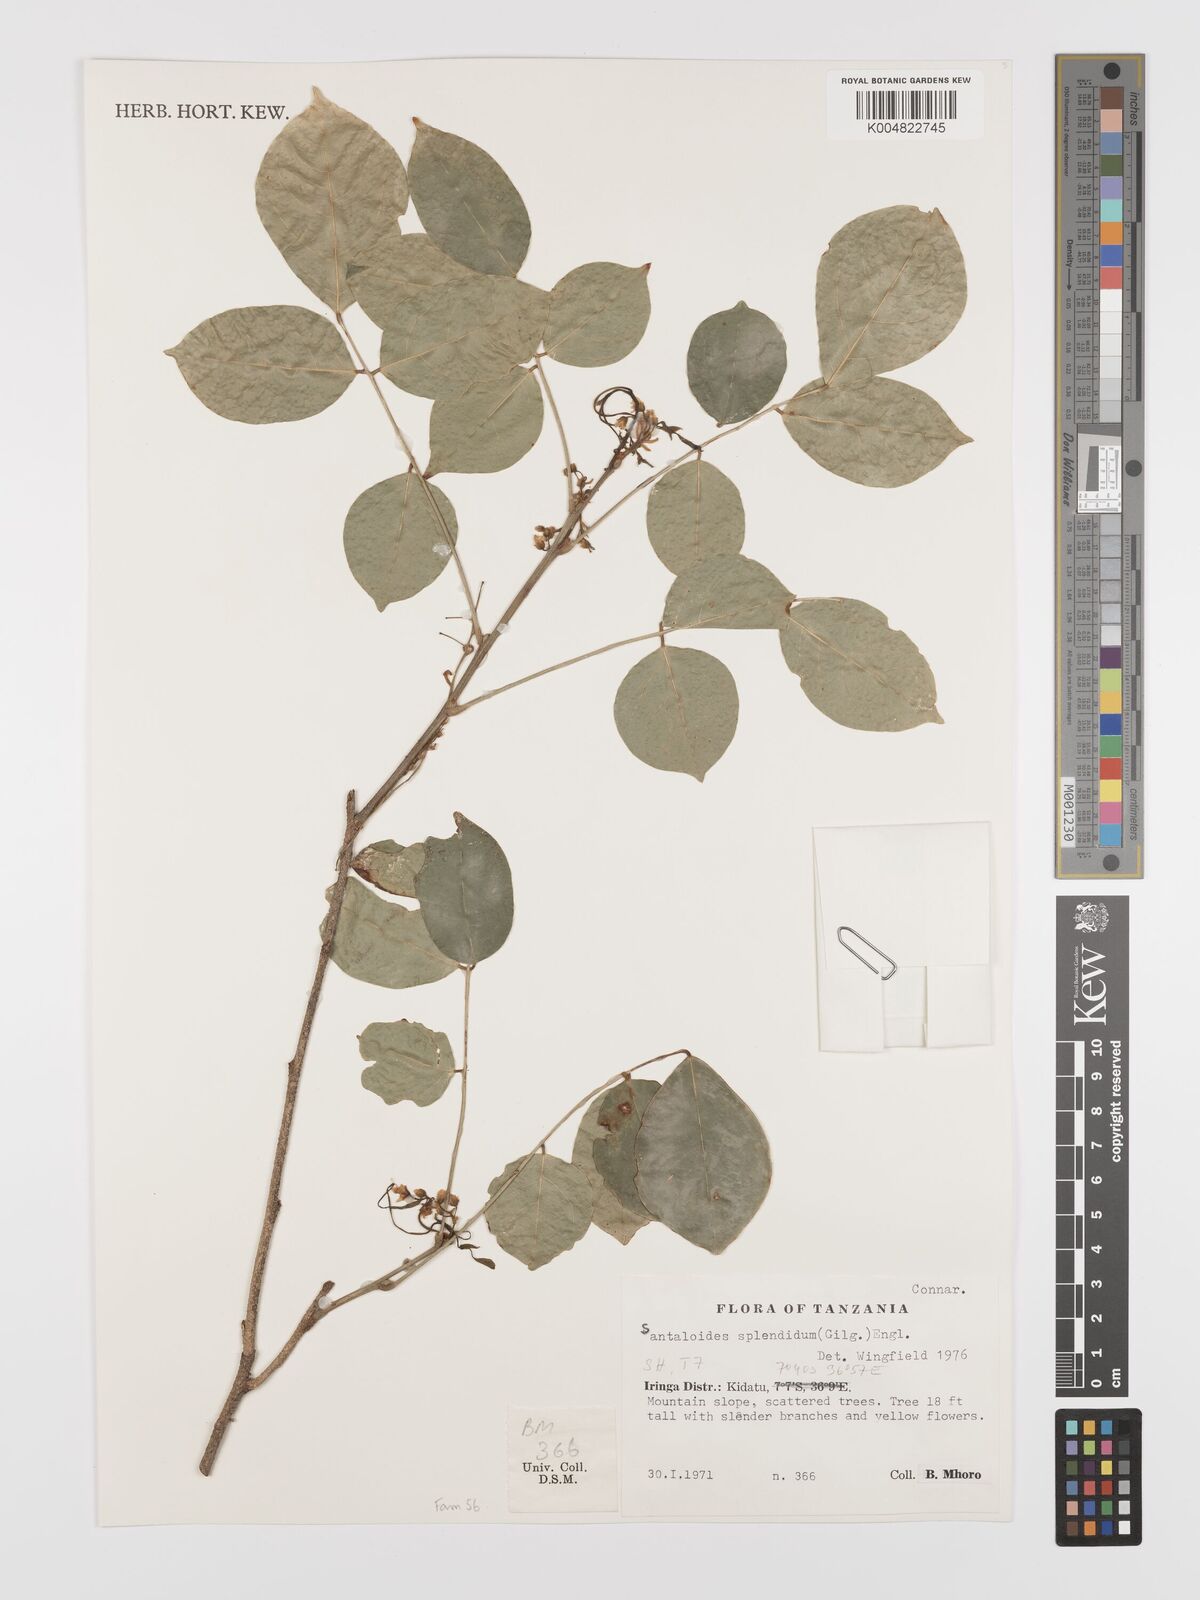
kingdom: Plantae
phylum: Tracheophyta
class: Magnoliopsida
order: Oxalidales
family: Connaraceae
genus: Rourea
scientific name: Rourea minor
